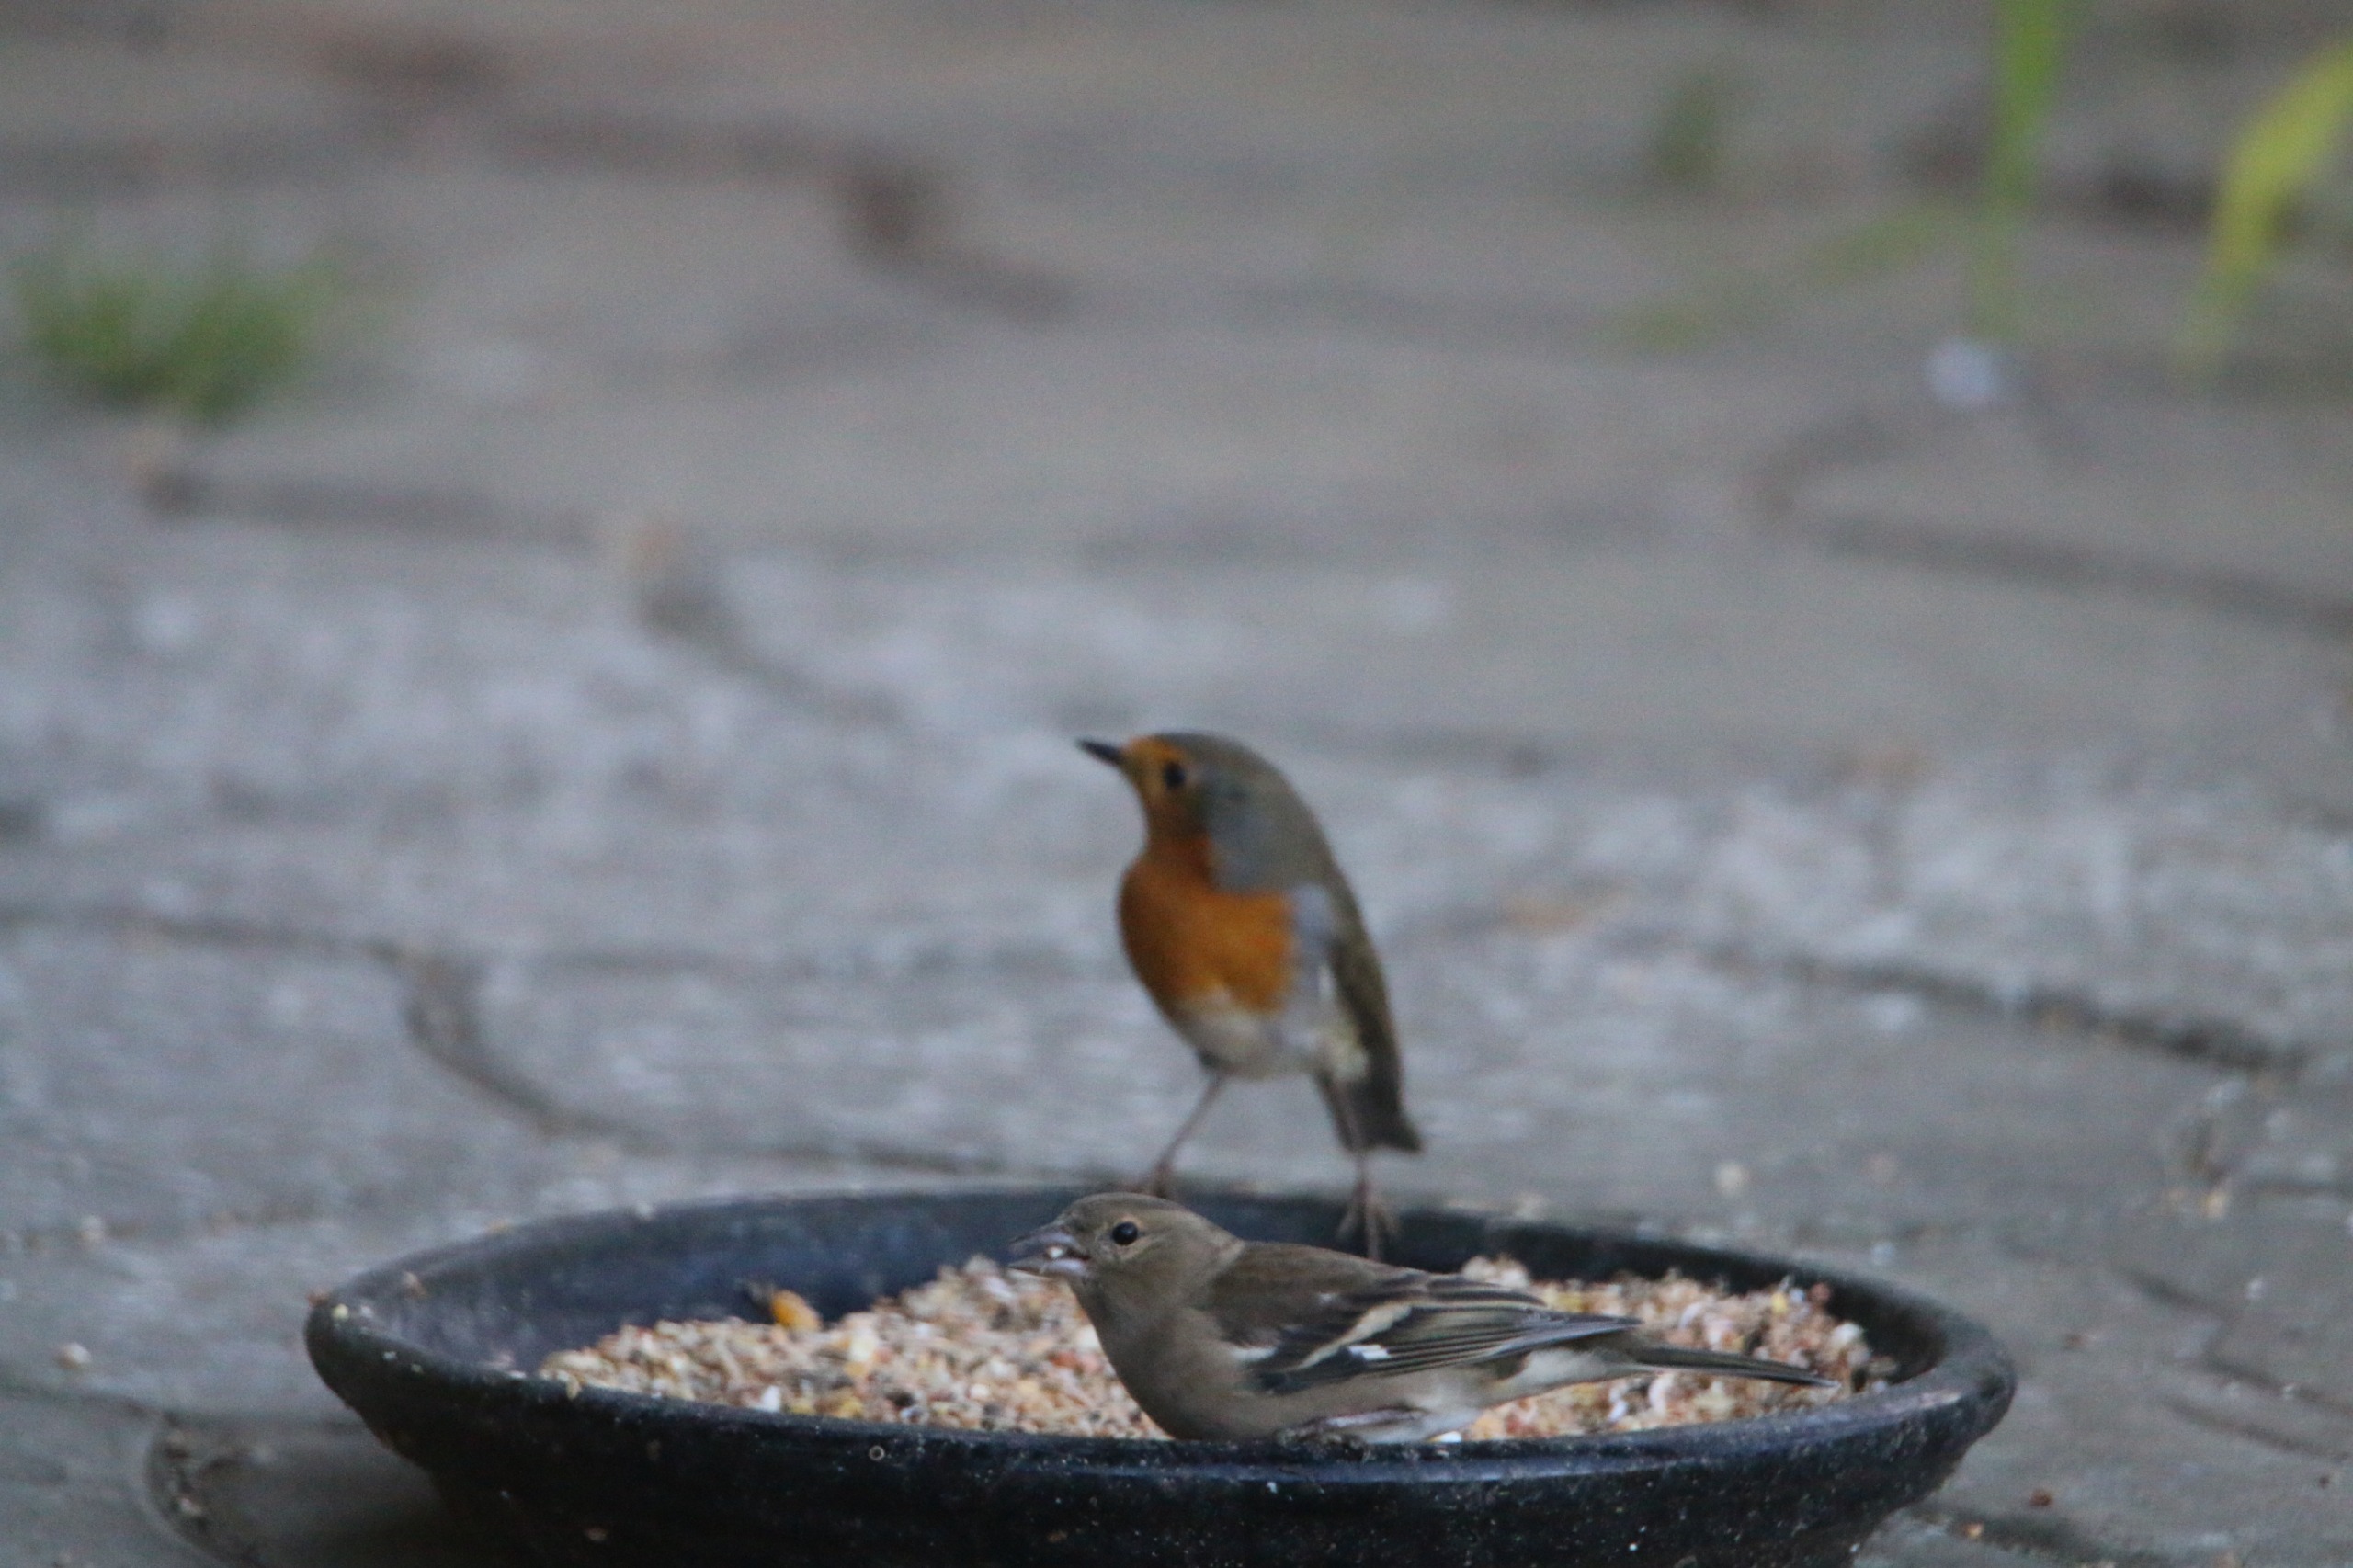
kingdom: Animalia
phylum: Chordata
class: Aves
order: Passeriformes
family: Fringillidae
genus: Fringilla
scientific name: Fringilla coelebs
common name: Bogfinke
